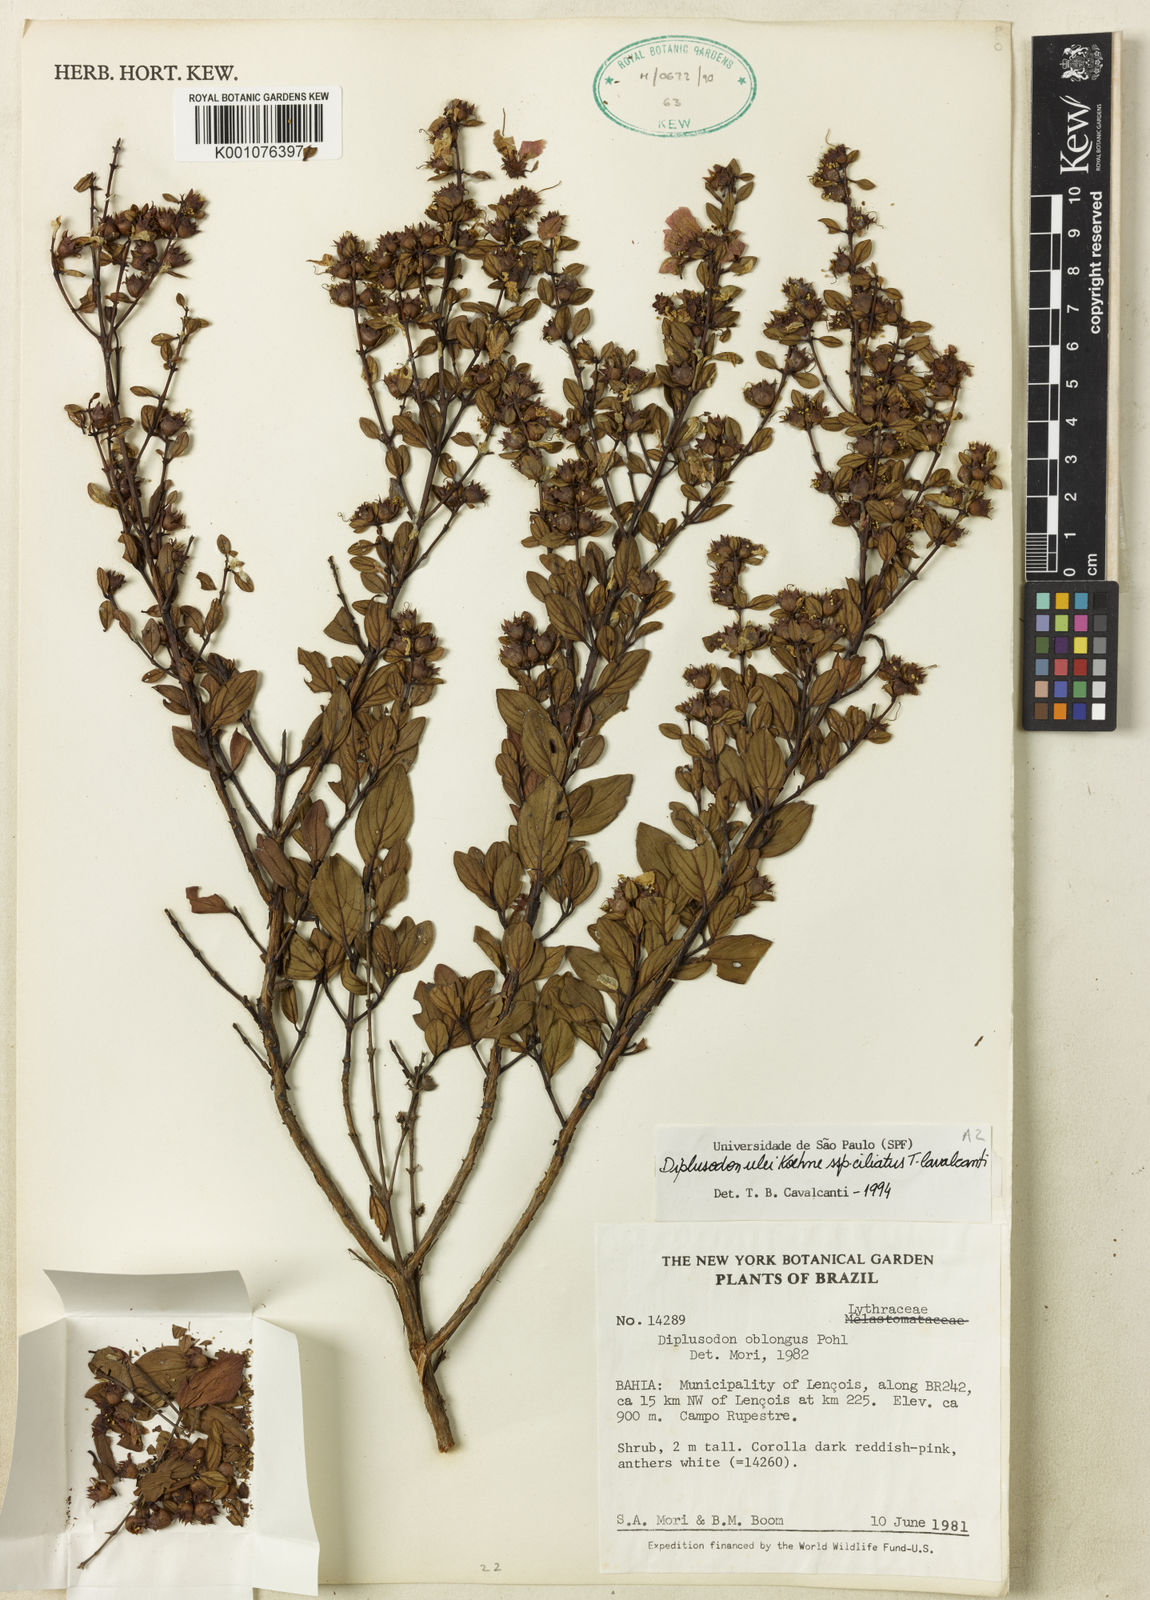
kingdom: Plantae
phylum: Tracheophyta
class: Magnoliopsida
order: Myrtales
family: Lythraceae
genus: Diplusodon
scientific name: Diplusodon ciliatus
